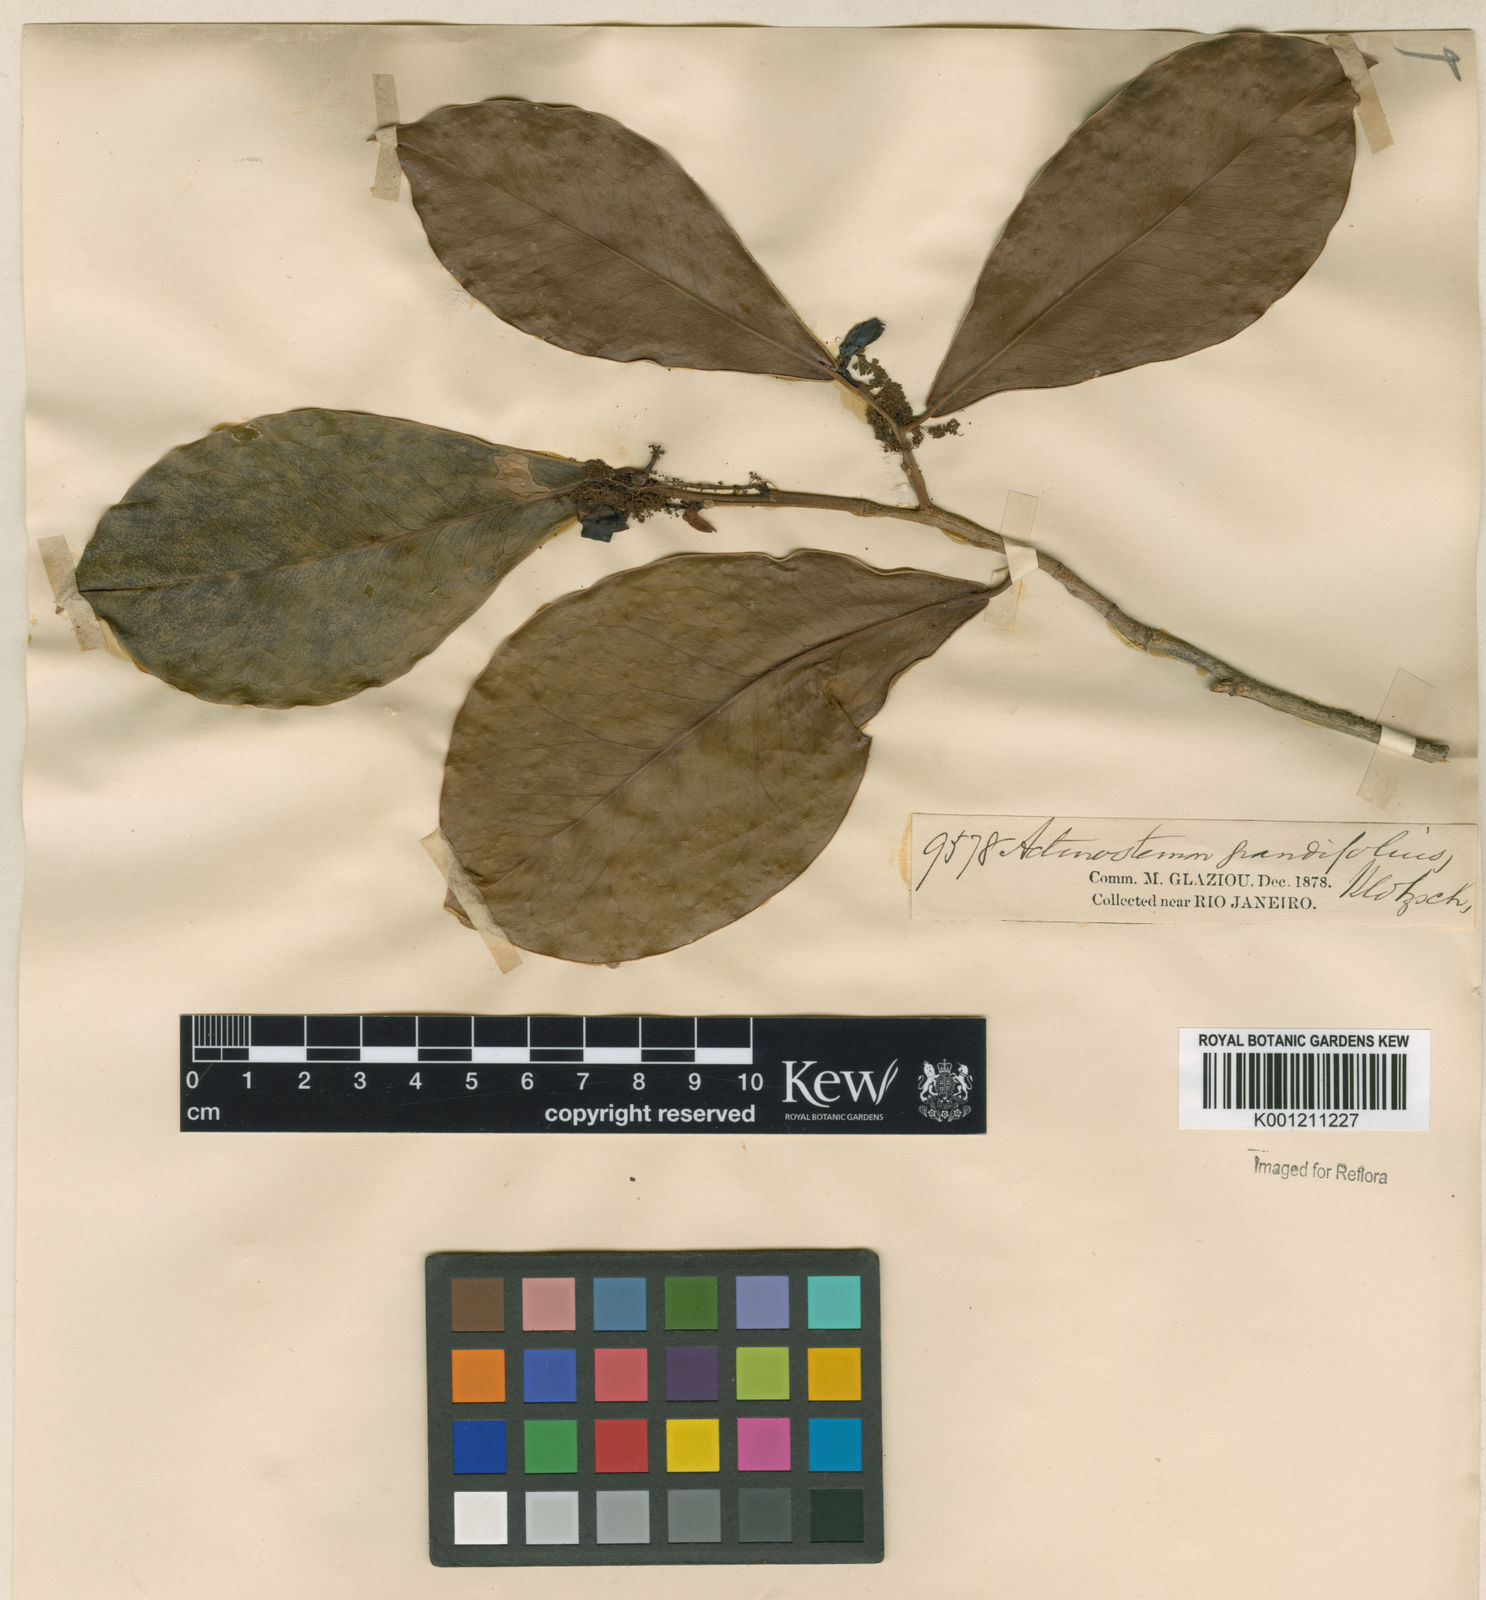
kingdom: Plantae
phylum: Tracheophyta
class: Magnoliopsida
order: Malpighiales
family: Euphorbiaceae
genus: Actinostemon
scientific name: Actinostemon
